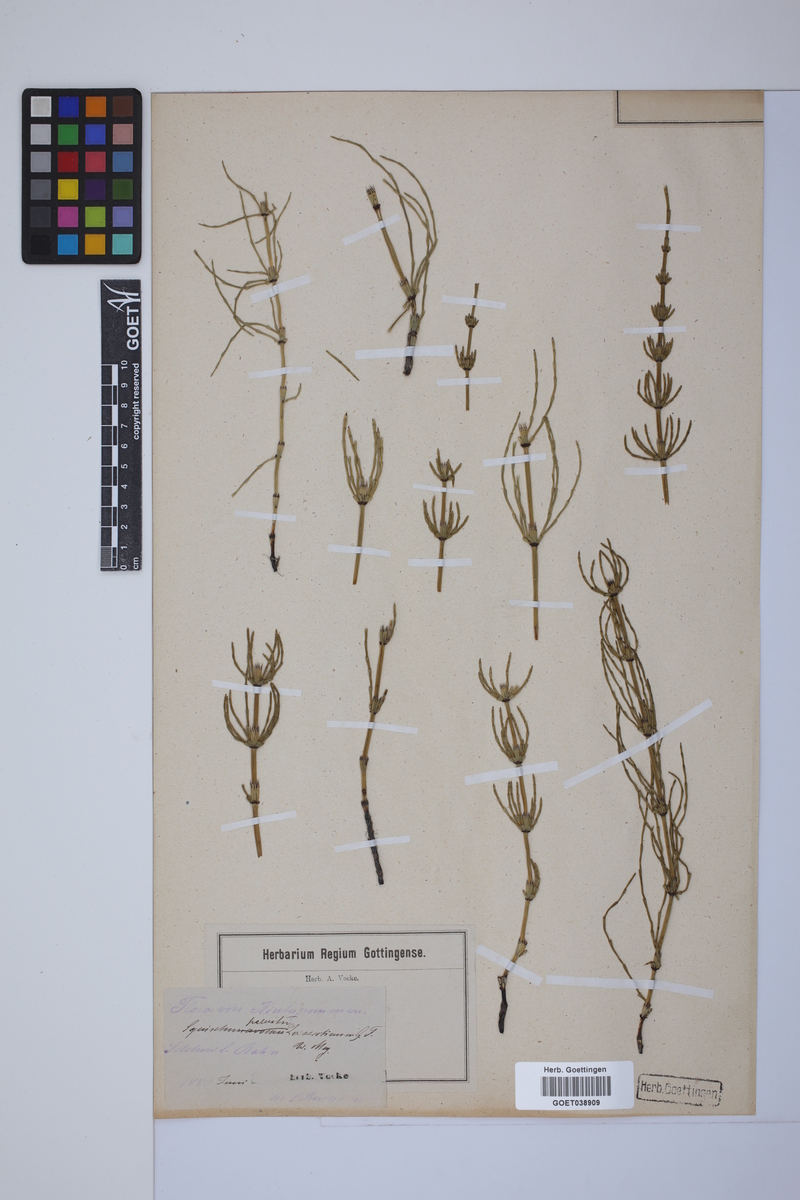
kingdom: Plantae
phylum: Tracheophyta
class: Polypodiopsida
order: Equisetales
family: Equisetaceae
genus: Equisetum
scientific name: Equisetum palustre
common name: Marsh horsetail
